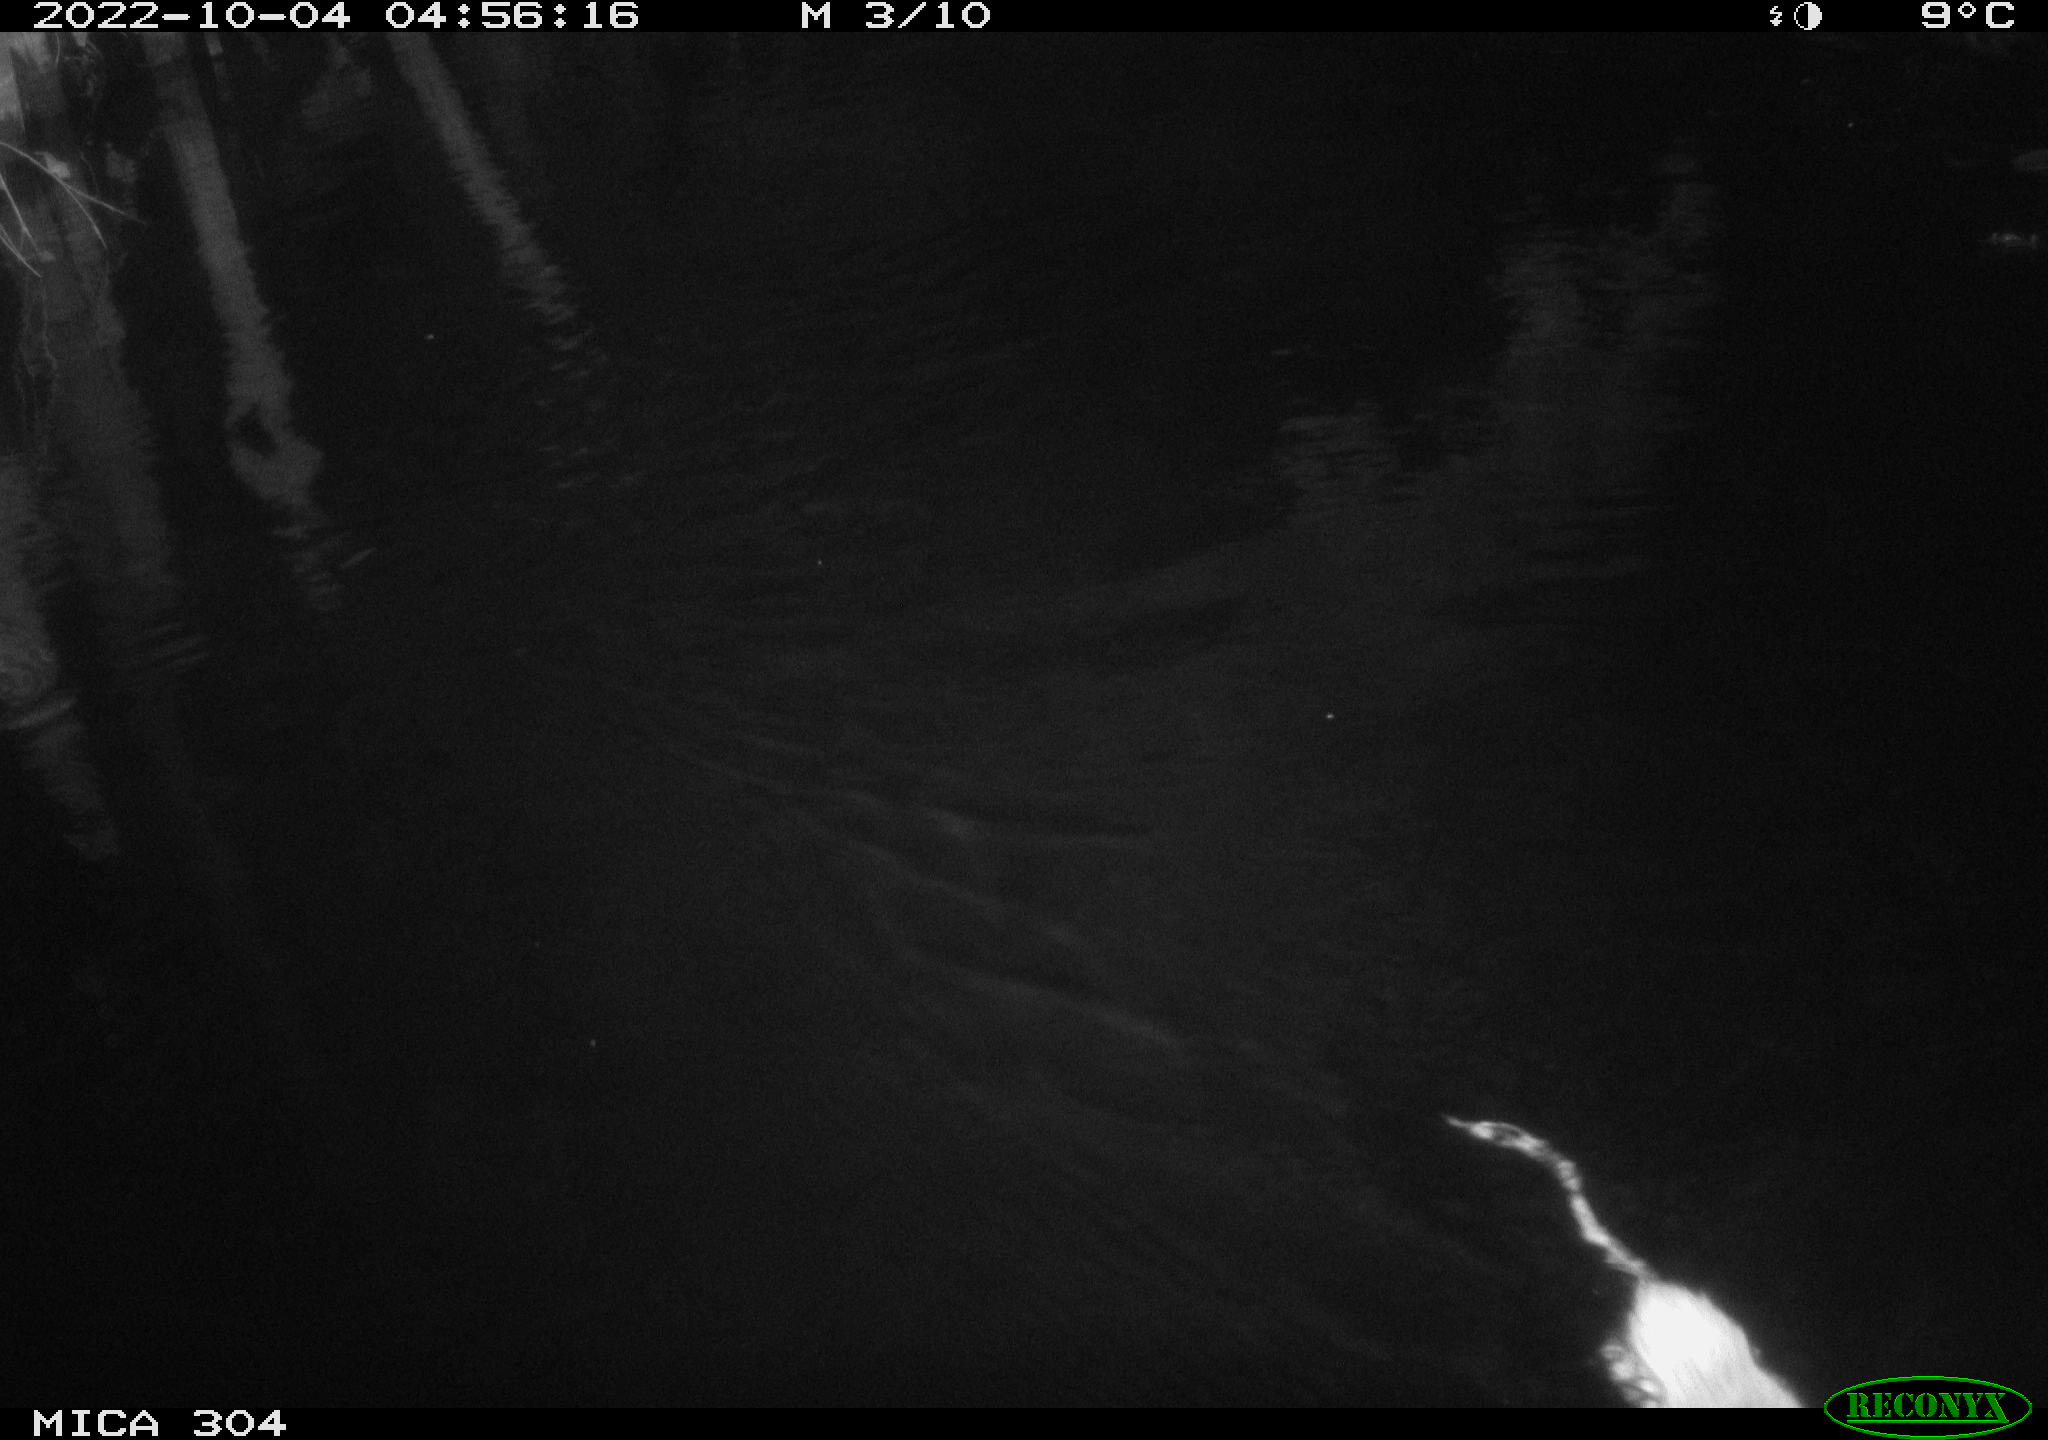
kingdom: Animalia
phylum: Chordata
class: Mammalia
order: Rodentia
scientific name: Rodentia
